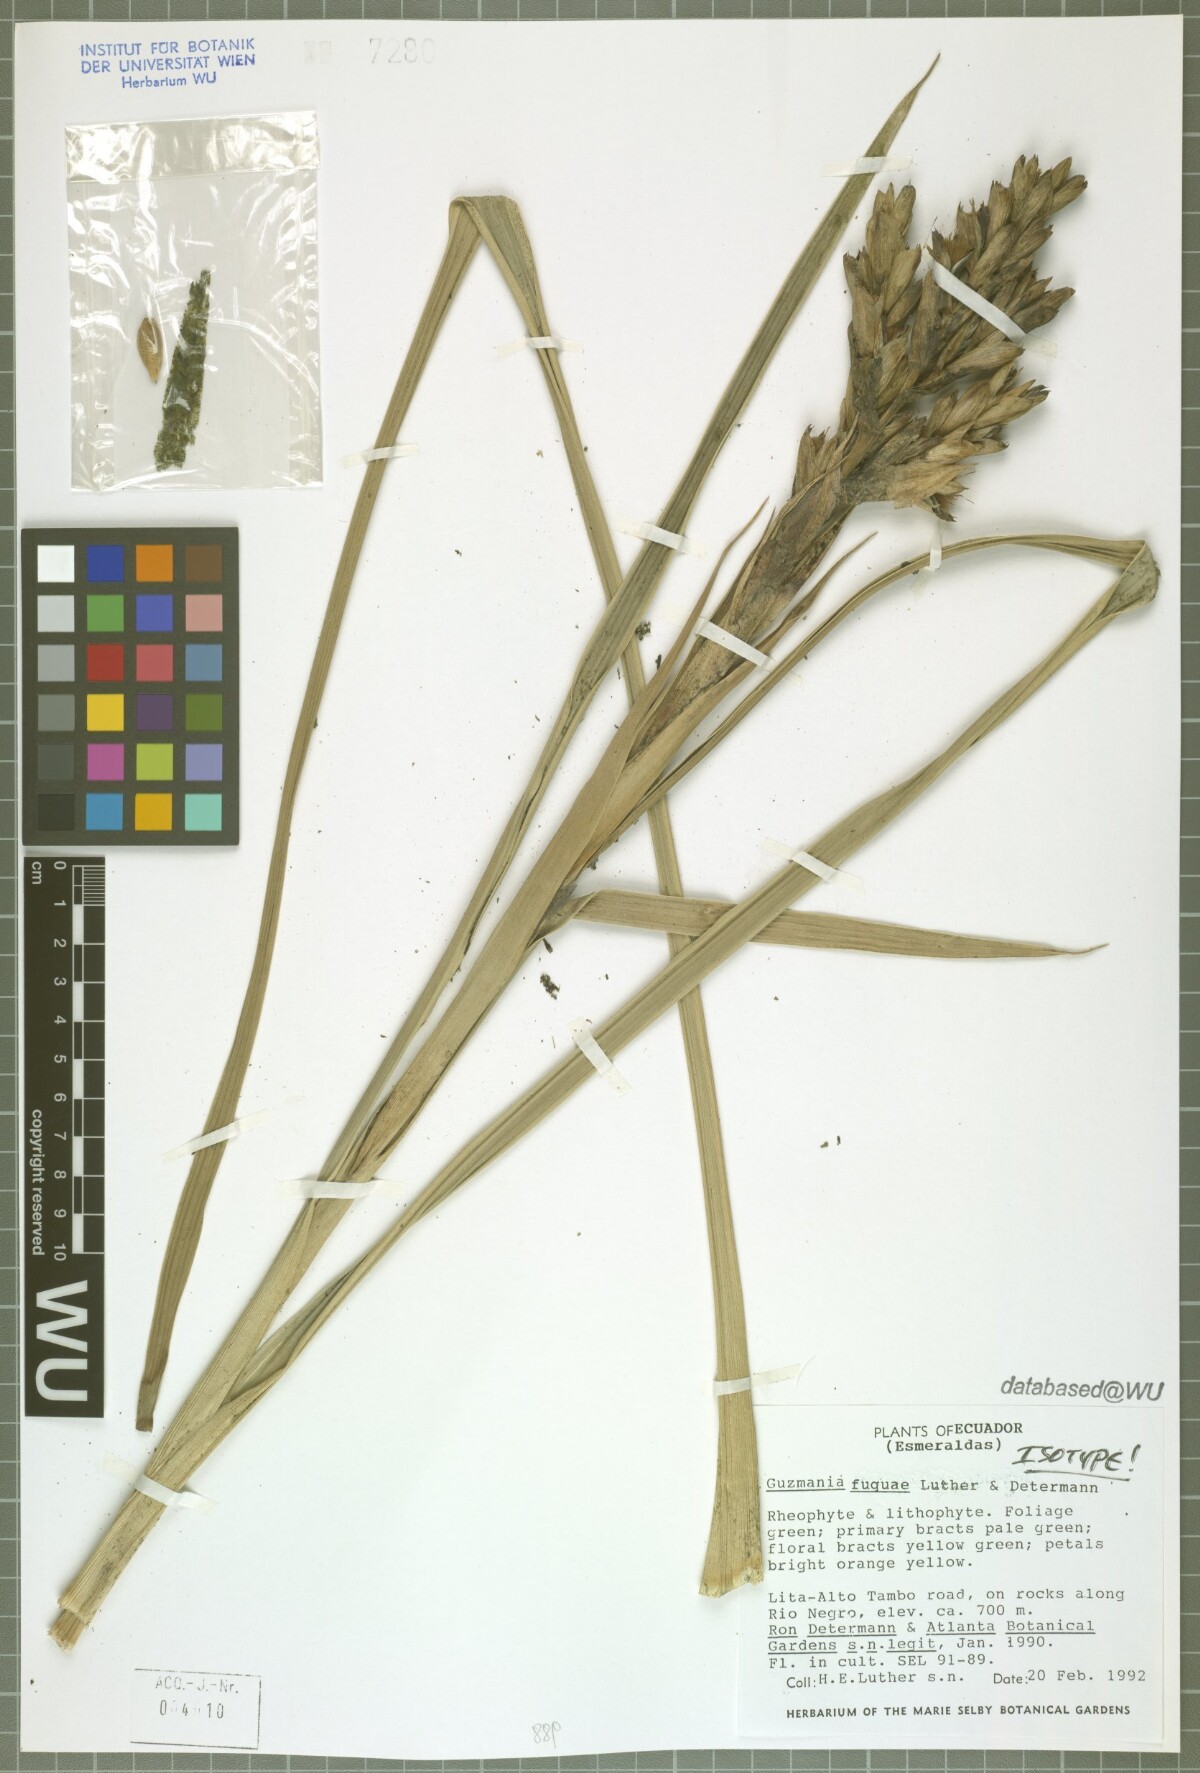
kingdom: Plantae
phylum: Tracheophyta
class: Liliopsida
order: Poales
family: Bromeliaceae
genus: Guzmania
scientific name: Guzmania fuquae
